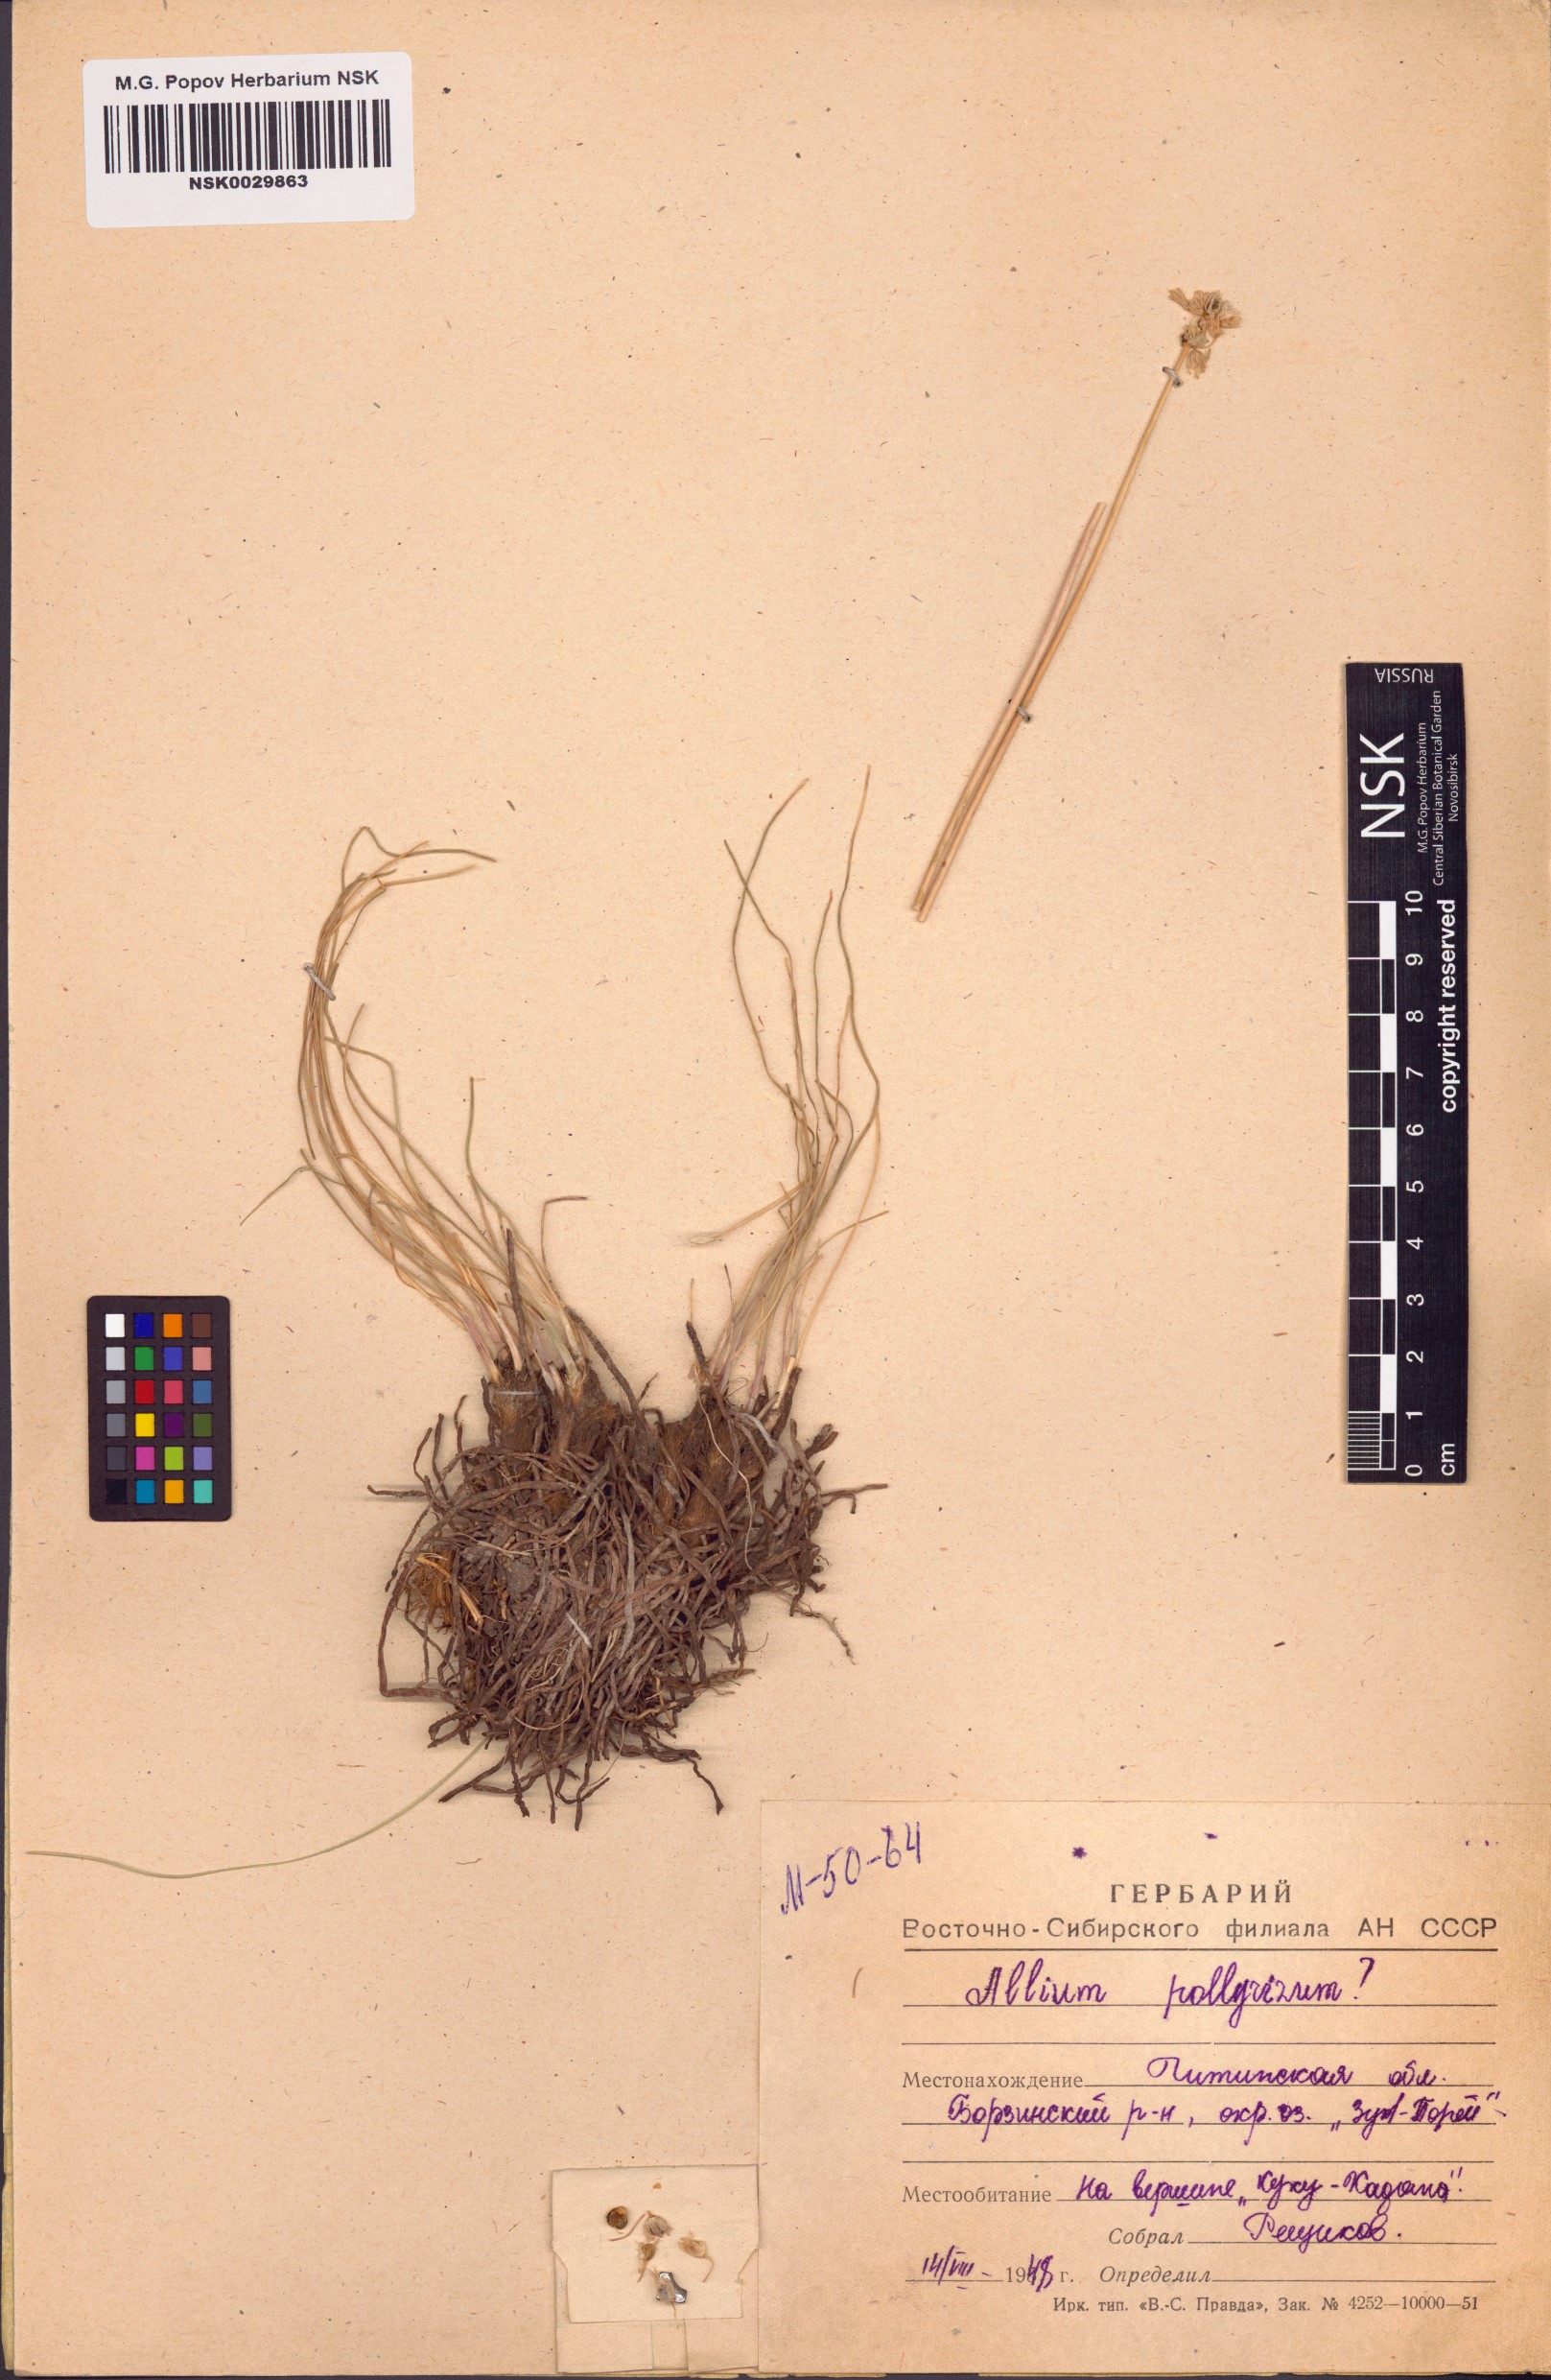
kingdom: Plantae
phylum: Tracheophyta
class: Liliopsida
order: Asparagales
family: Amaryllidaceae
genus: Allium
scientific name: Allium polyrhizum
